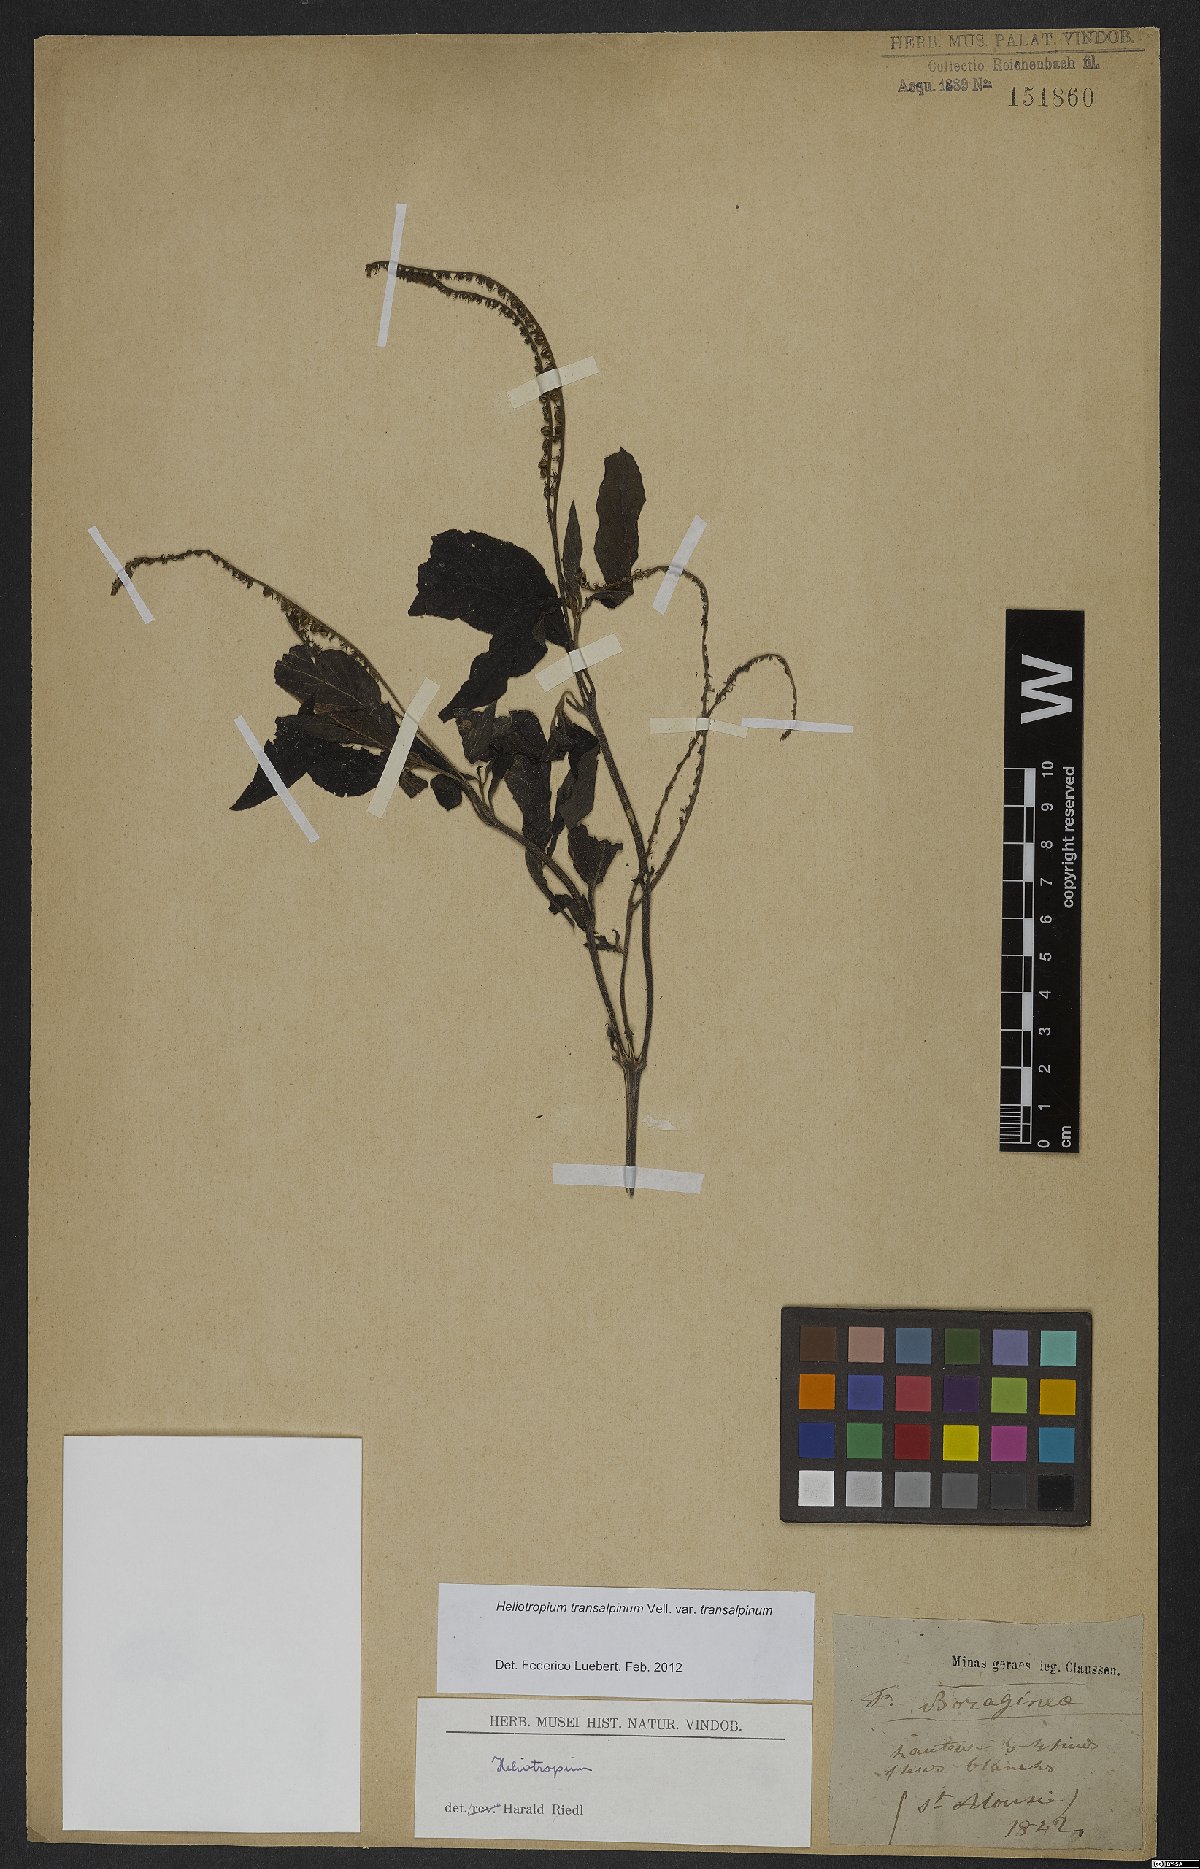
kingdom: Plantae
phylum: Tracheophyta
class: Magnoliopsida
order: Boraginales
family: Heliotropiaceae
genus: Heliotropium
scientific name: Heliotropium transalpinum
